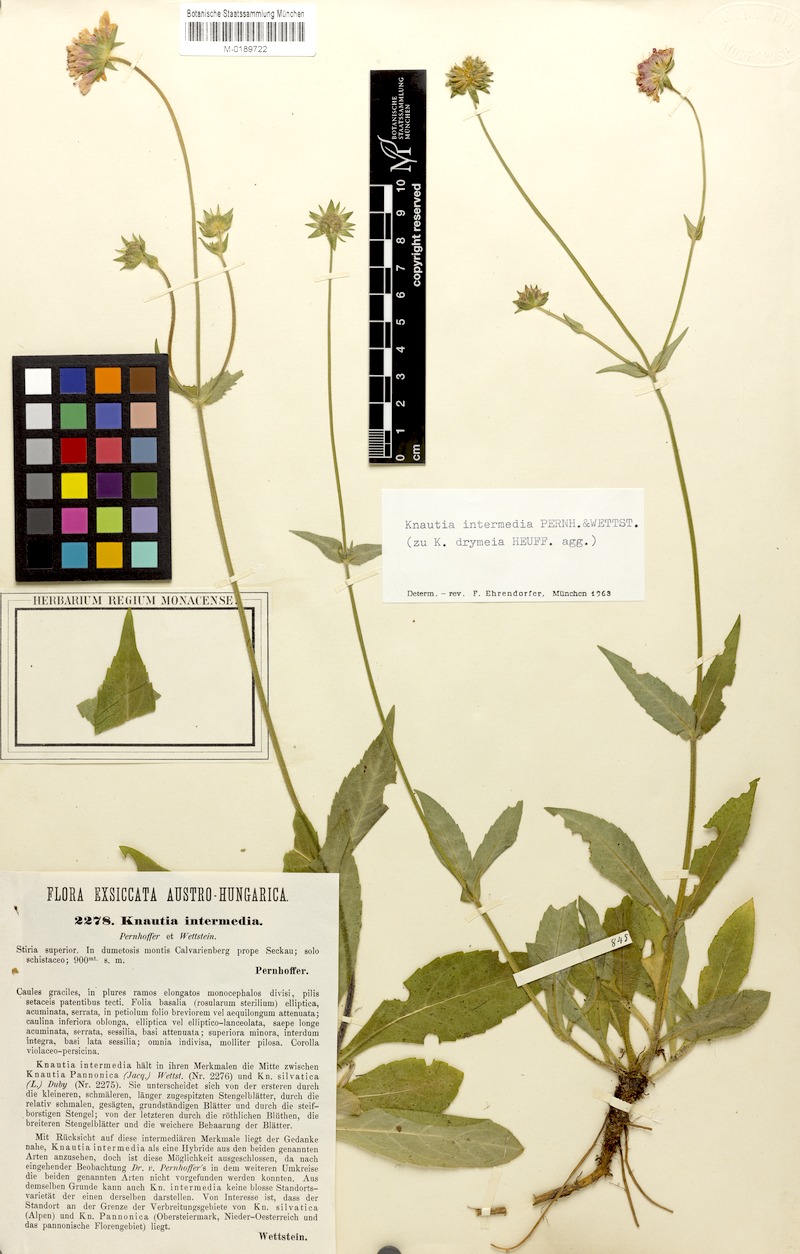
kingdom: Plantae
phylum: Tracheophyta
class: Magnoliopsida
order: Dipsacales
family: Caprifoliaceae
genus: Knautia
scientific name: Knautia drymeia
